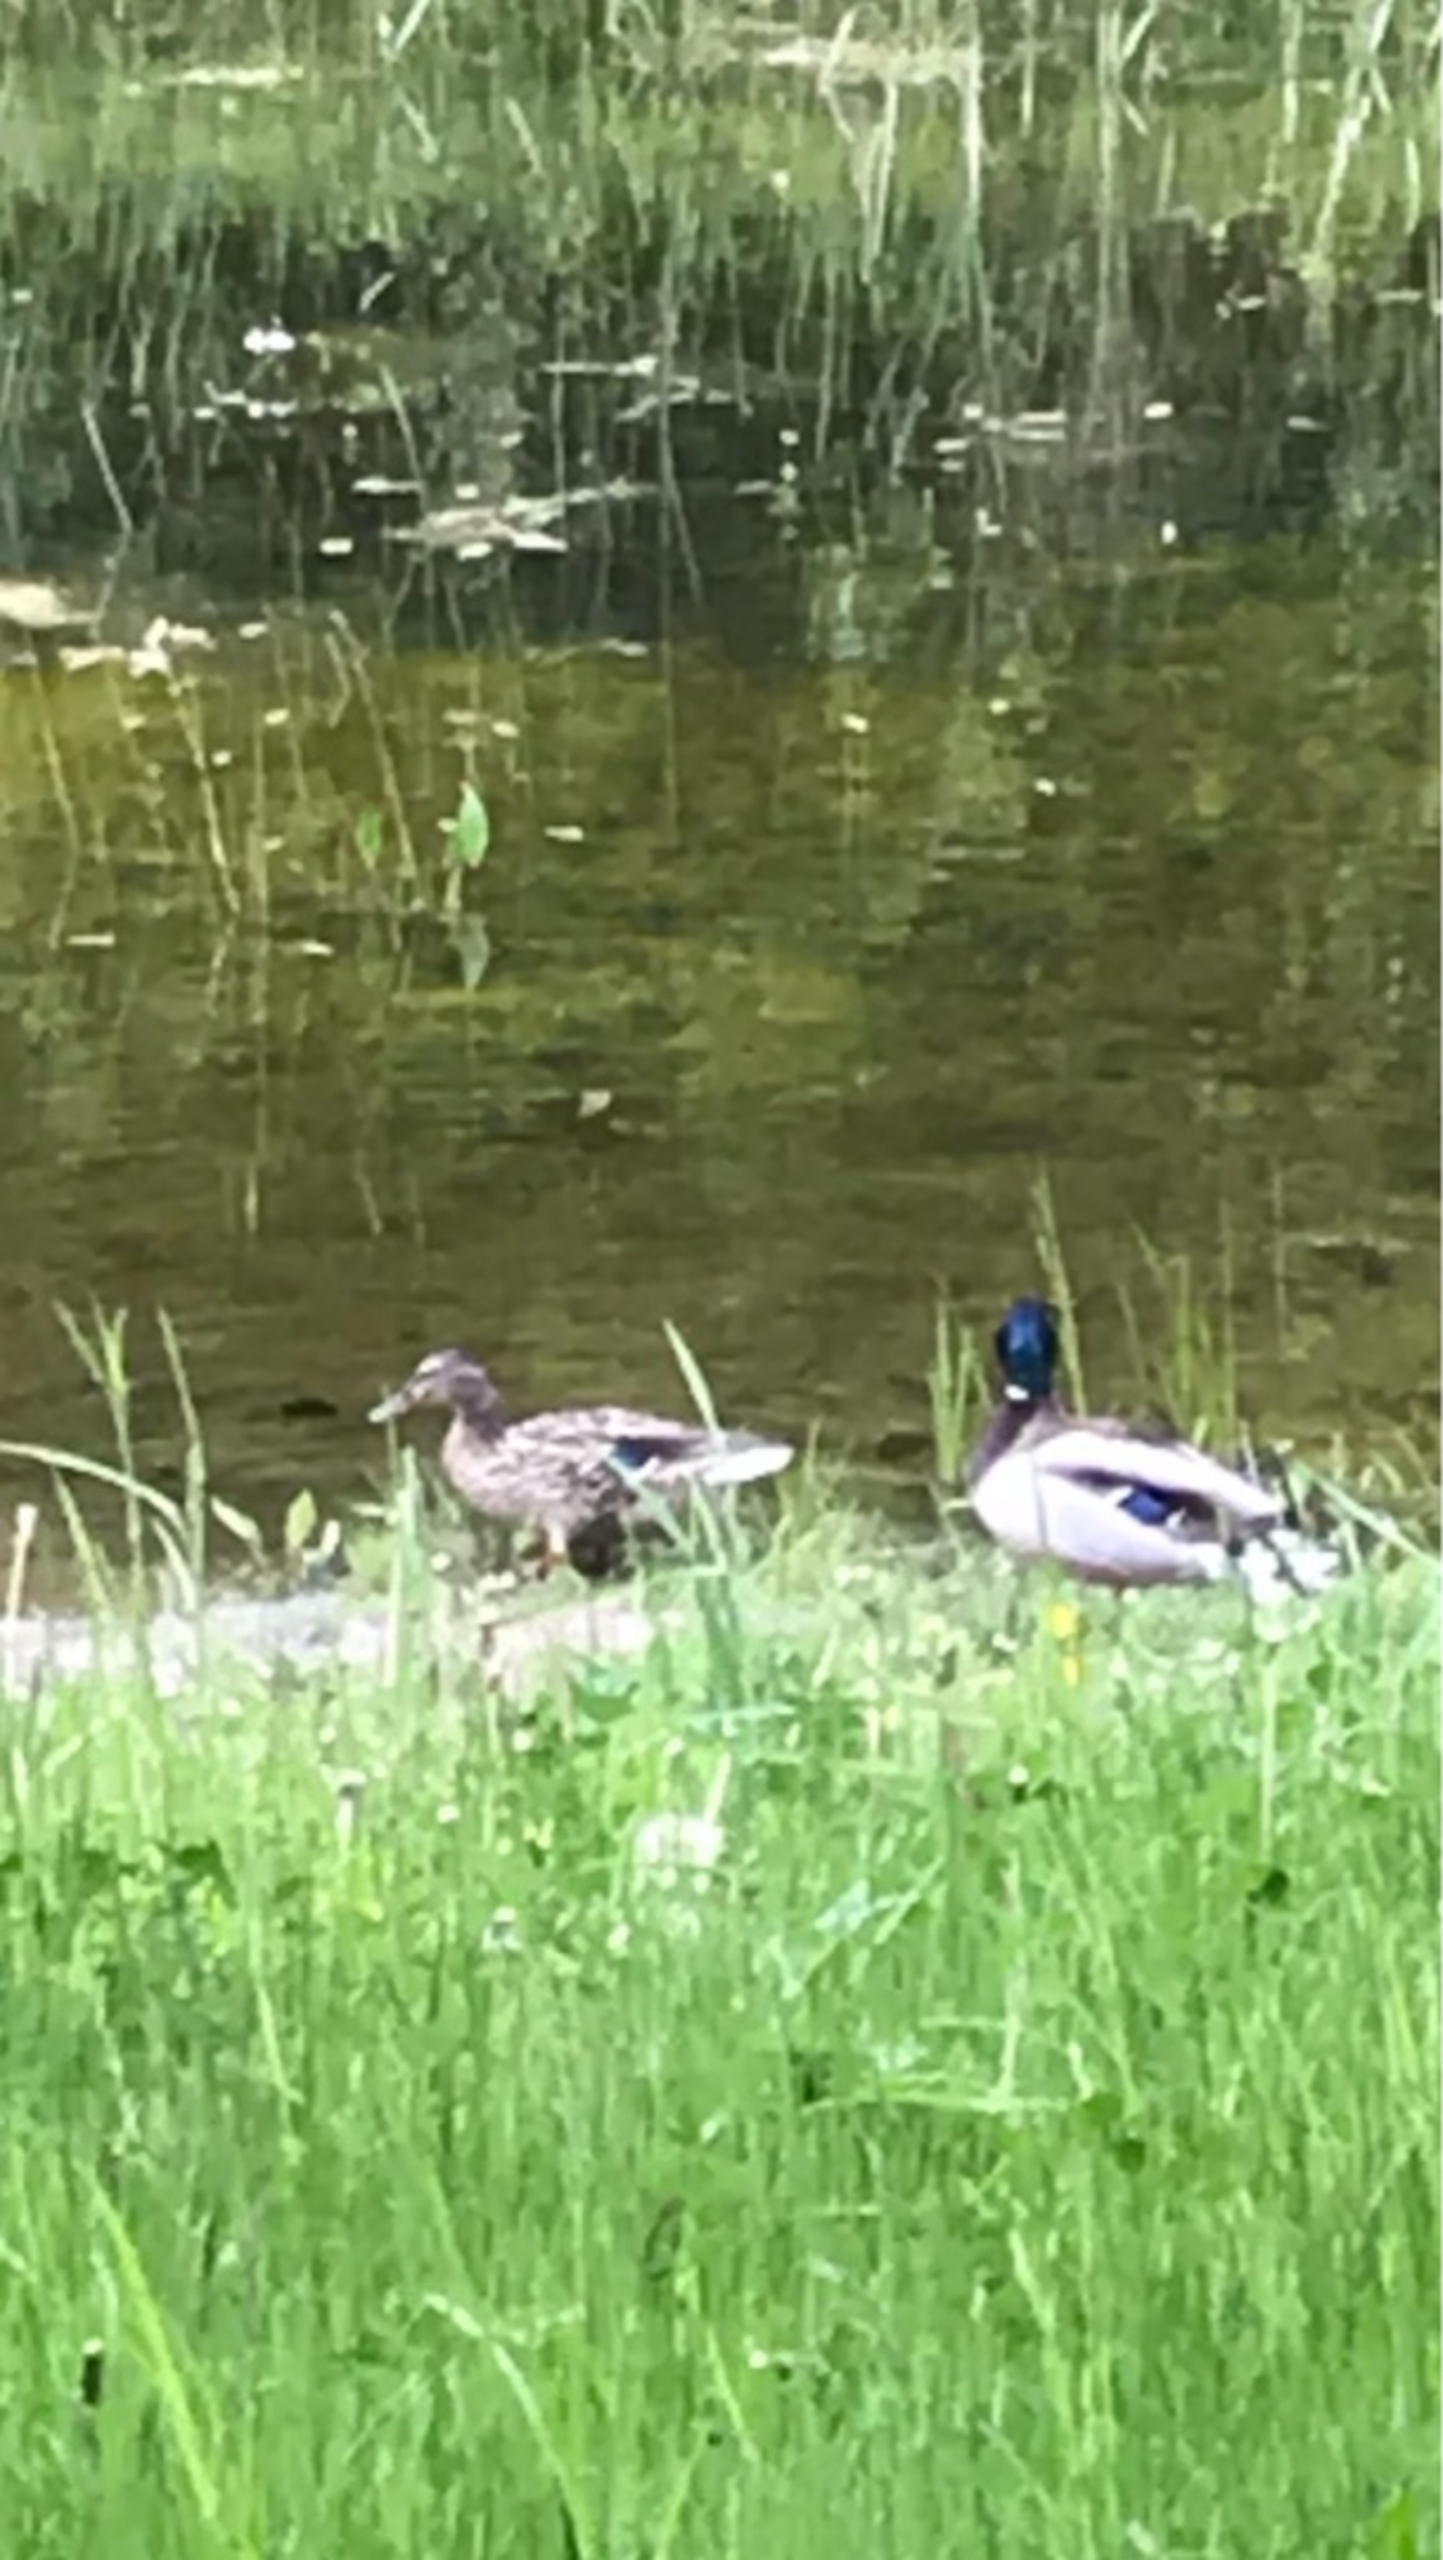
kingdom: Animalia
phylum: Chordata
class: Aves
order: Anseriformes
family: Anatidae
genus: Anas
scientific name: Anas platyrhynchos
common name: Gråand
